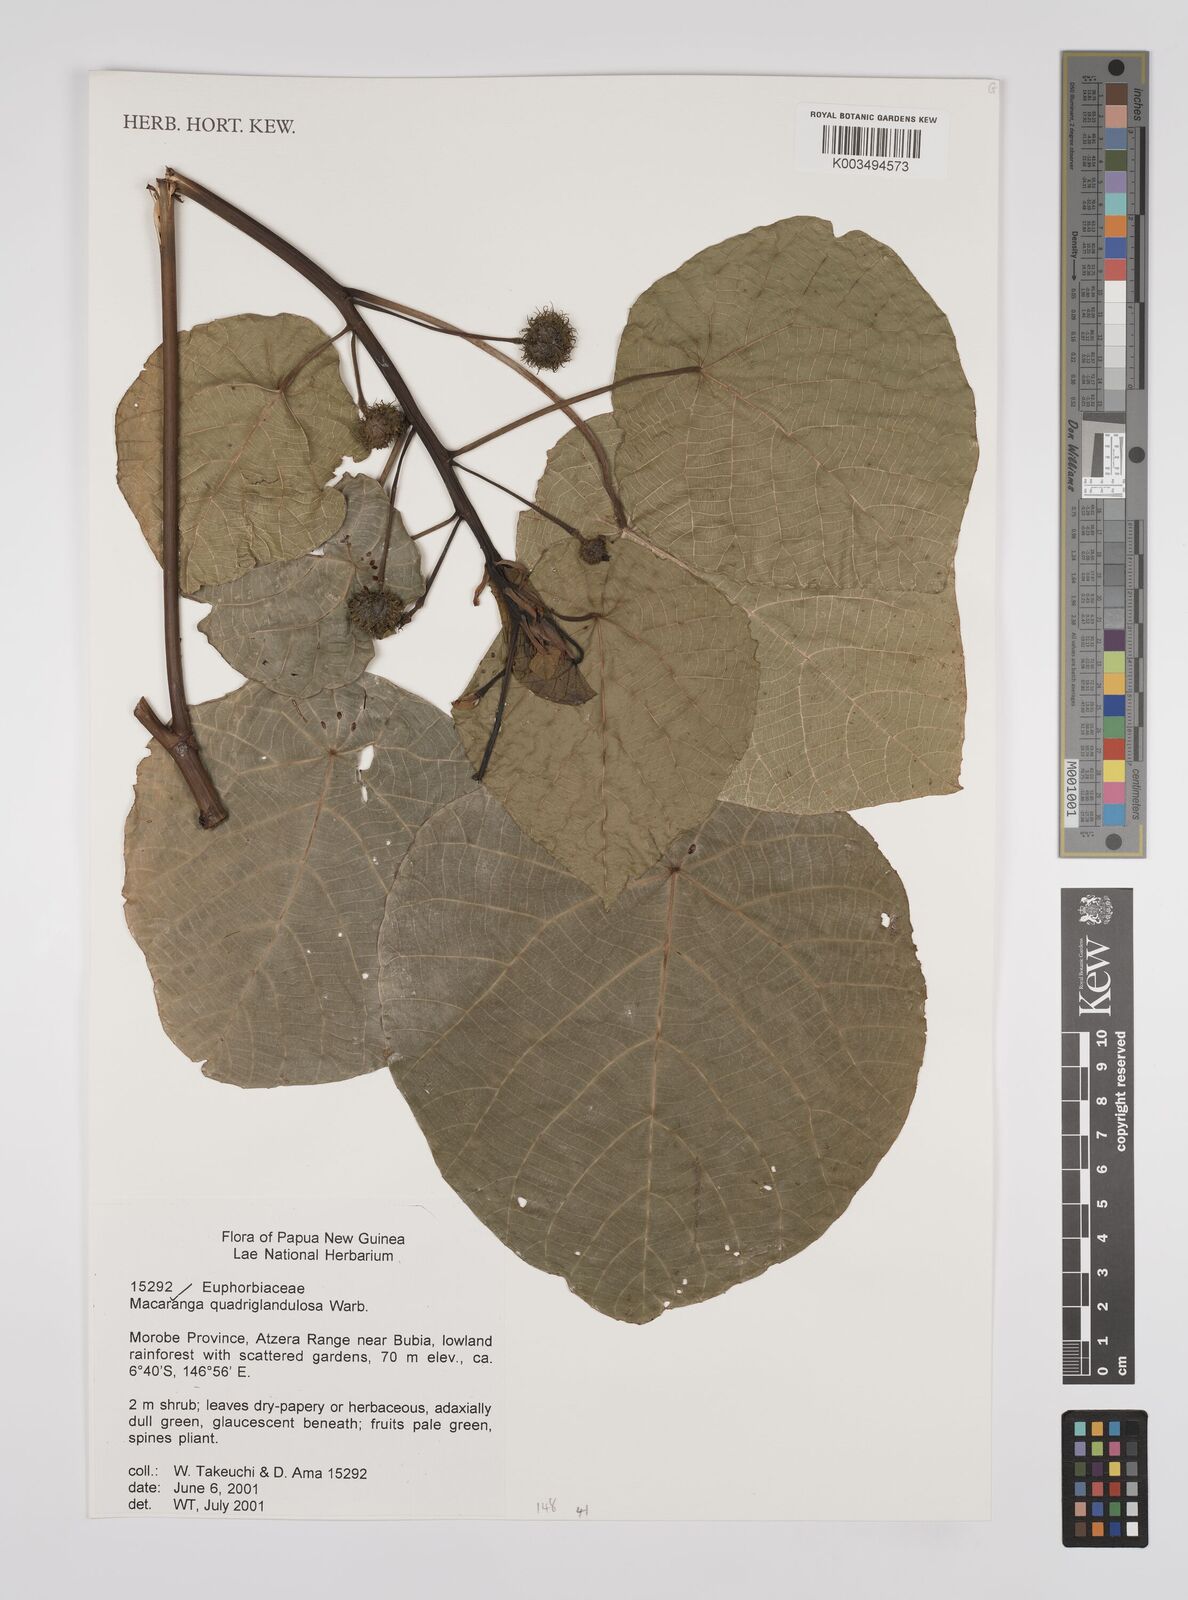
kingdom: Plantae
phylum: Tracheophyta
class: Magnoliopsida
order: Malpighiales
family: Euphorbiaceae
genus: Macaranga
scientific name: Macaranga quadriglandulosa
